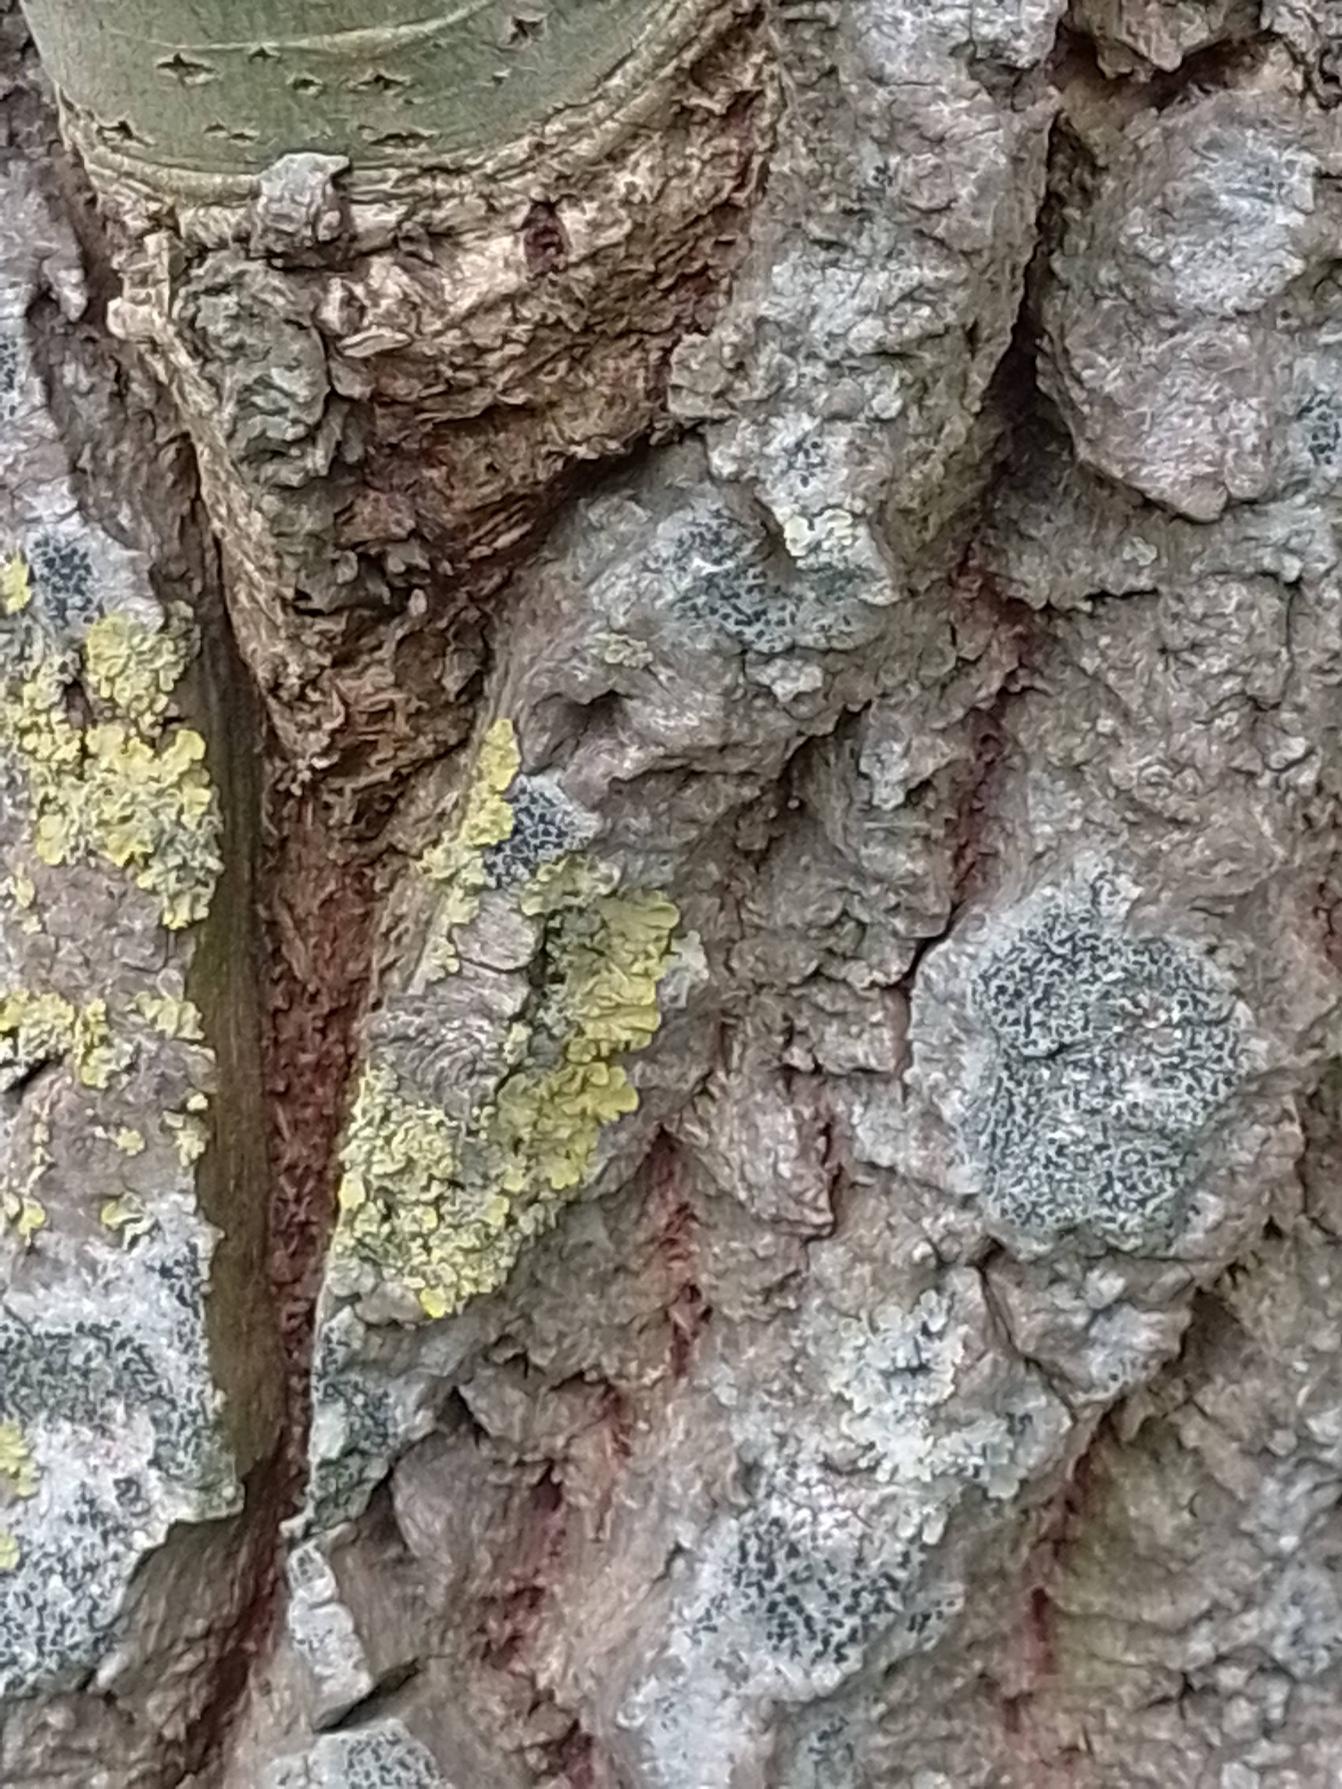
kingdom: Fungi
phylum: Ascomycota
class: Lecanoromycetes
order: Teloschistales
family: Teloschistaceae
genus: Xanthoria
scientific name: Xanthoria parietina
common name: Almindelig væggelav
